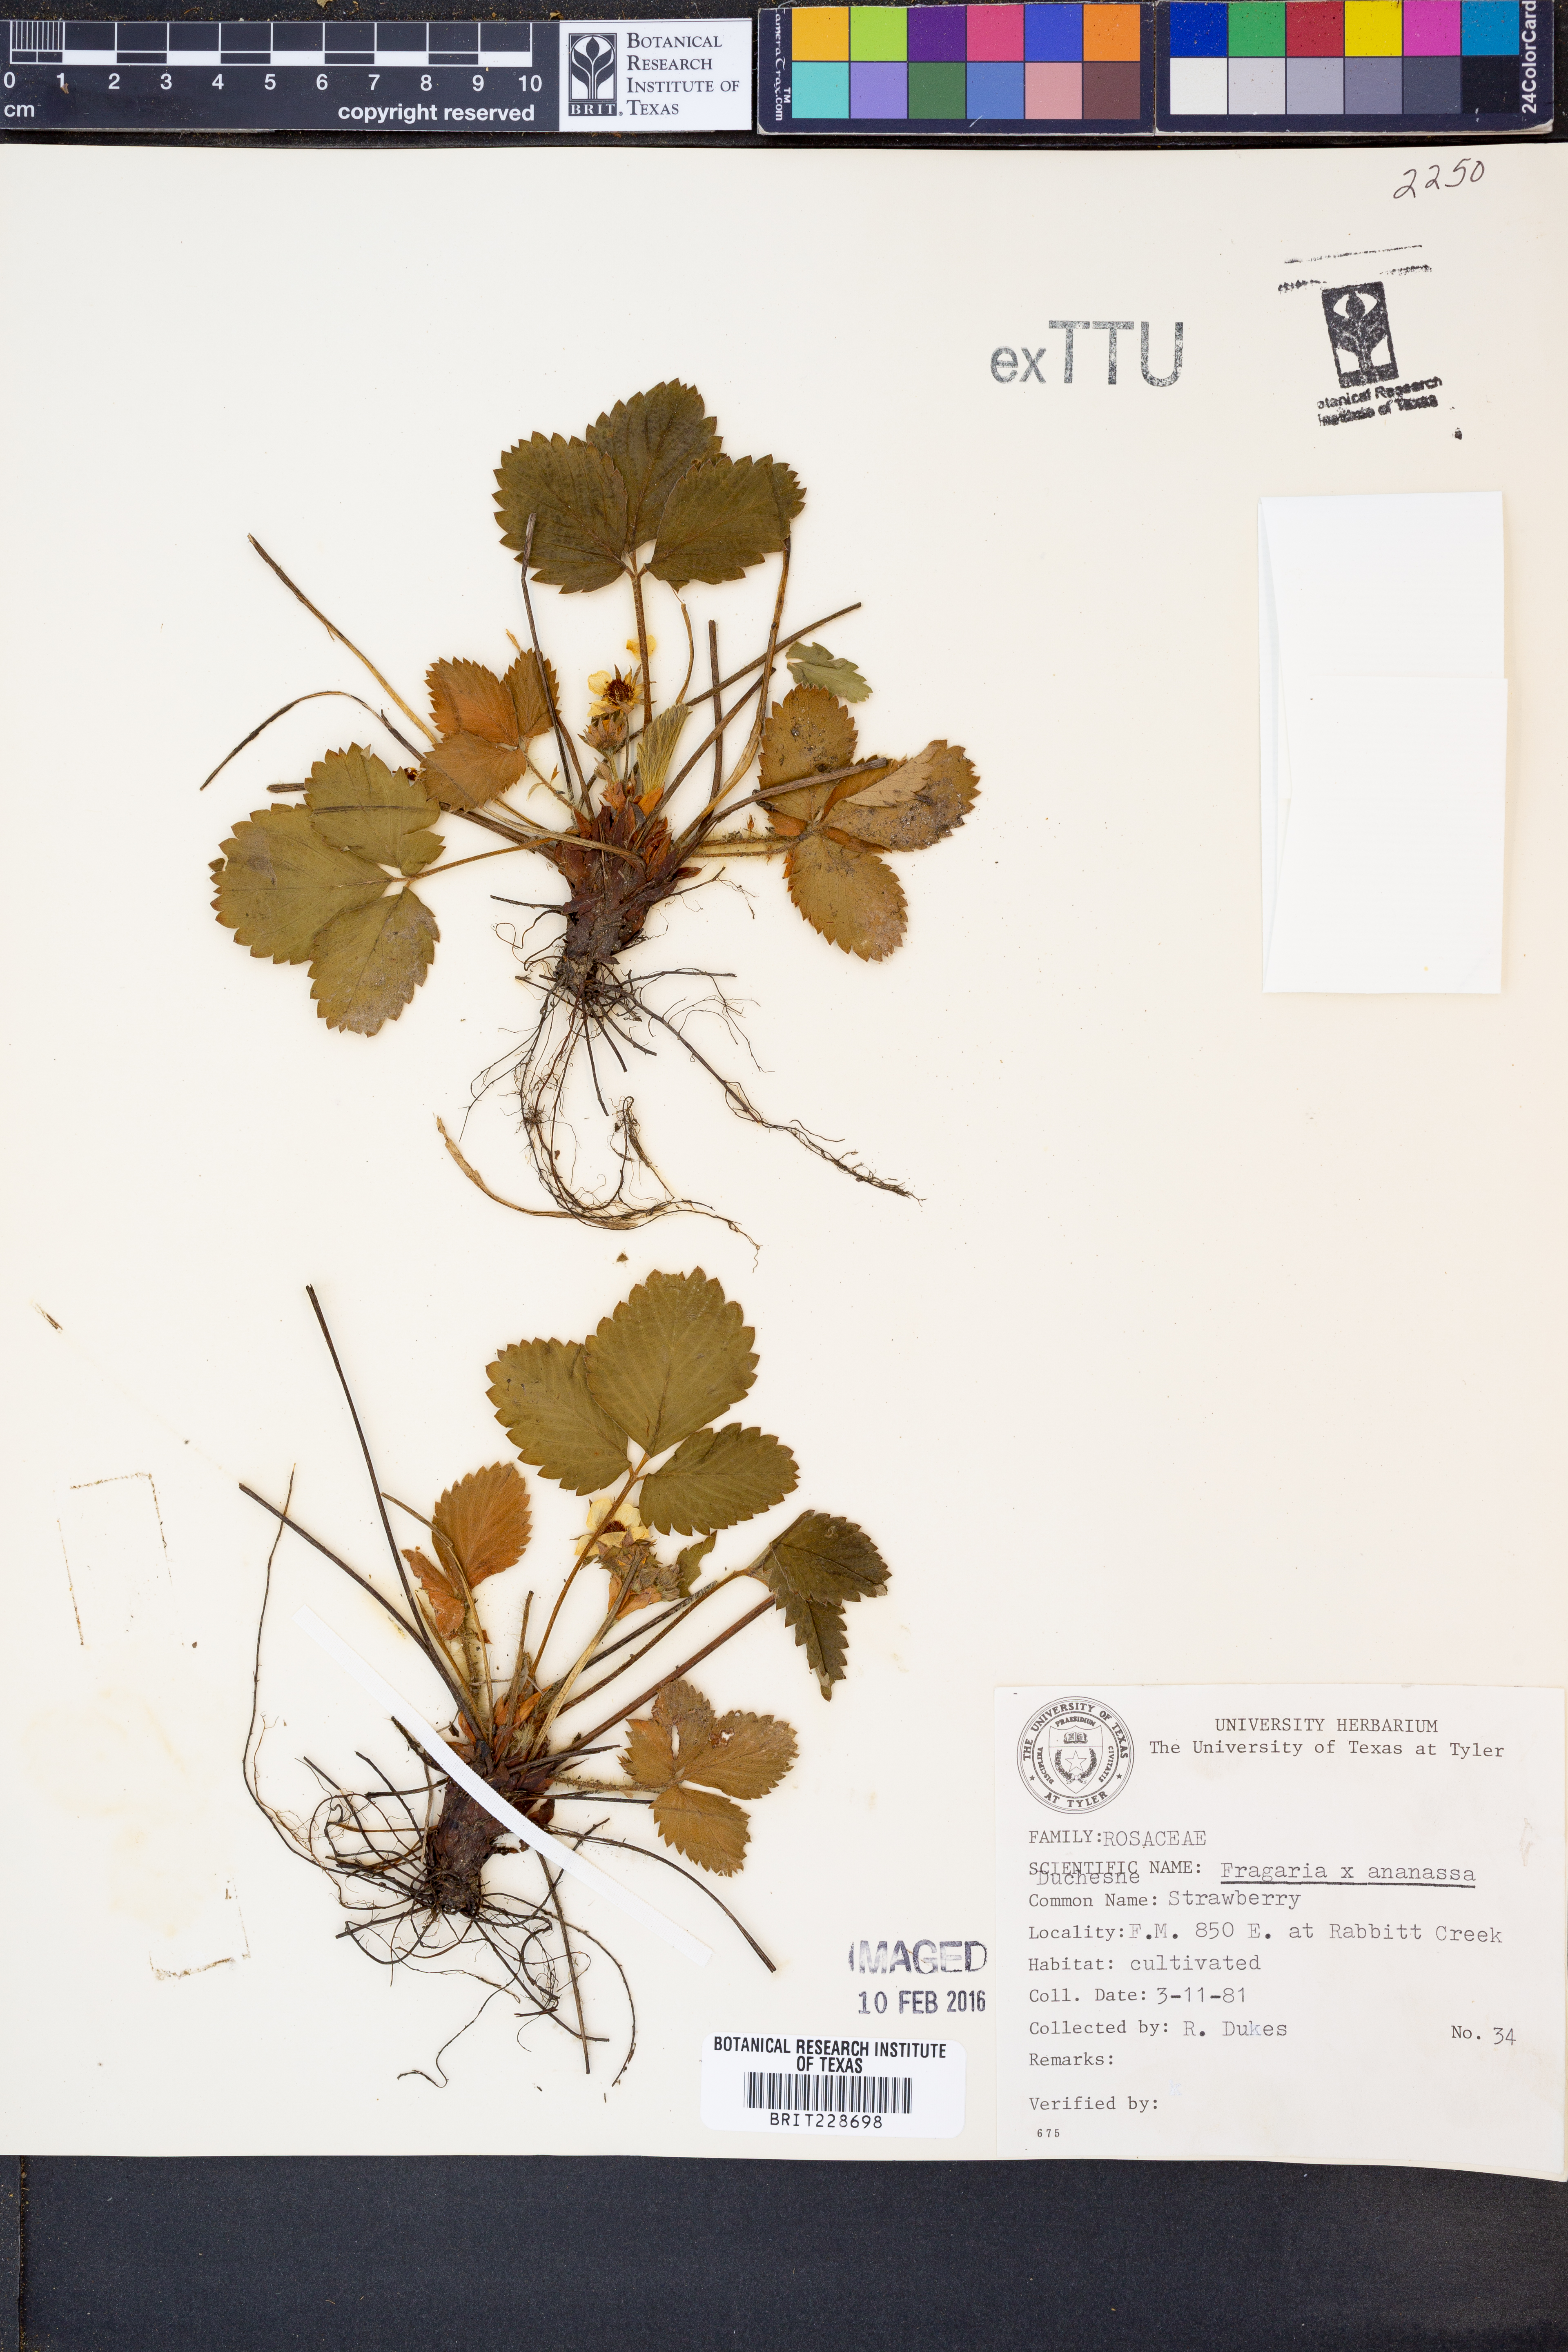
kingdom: Plantae
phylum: Tracheophyta
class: Magnoliopsida
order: Rosales
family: Rosaceae
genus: Fragaria
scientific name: Fragaria ananassa
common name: Garden strawberry
